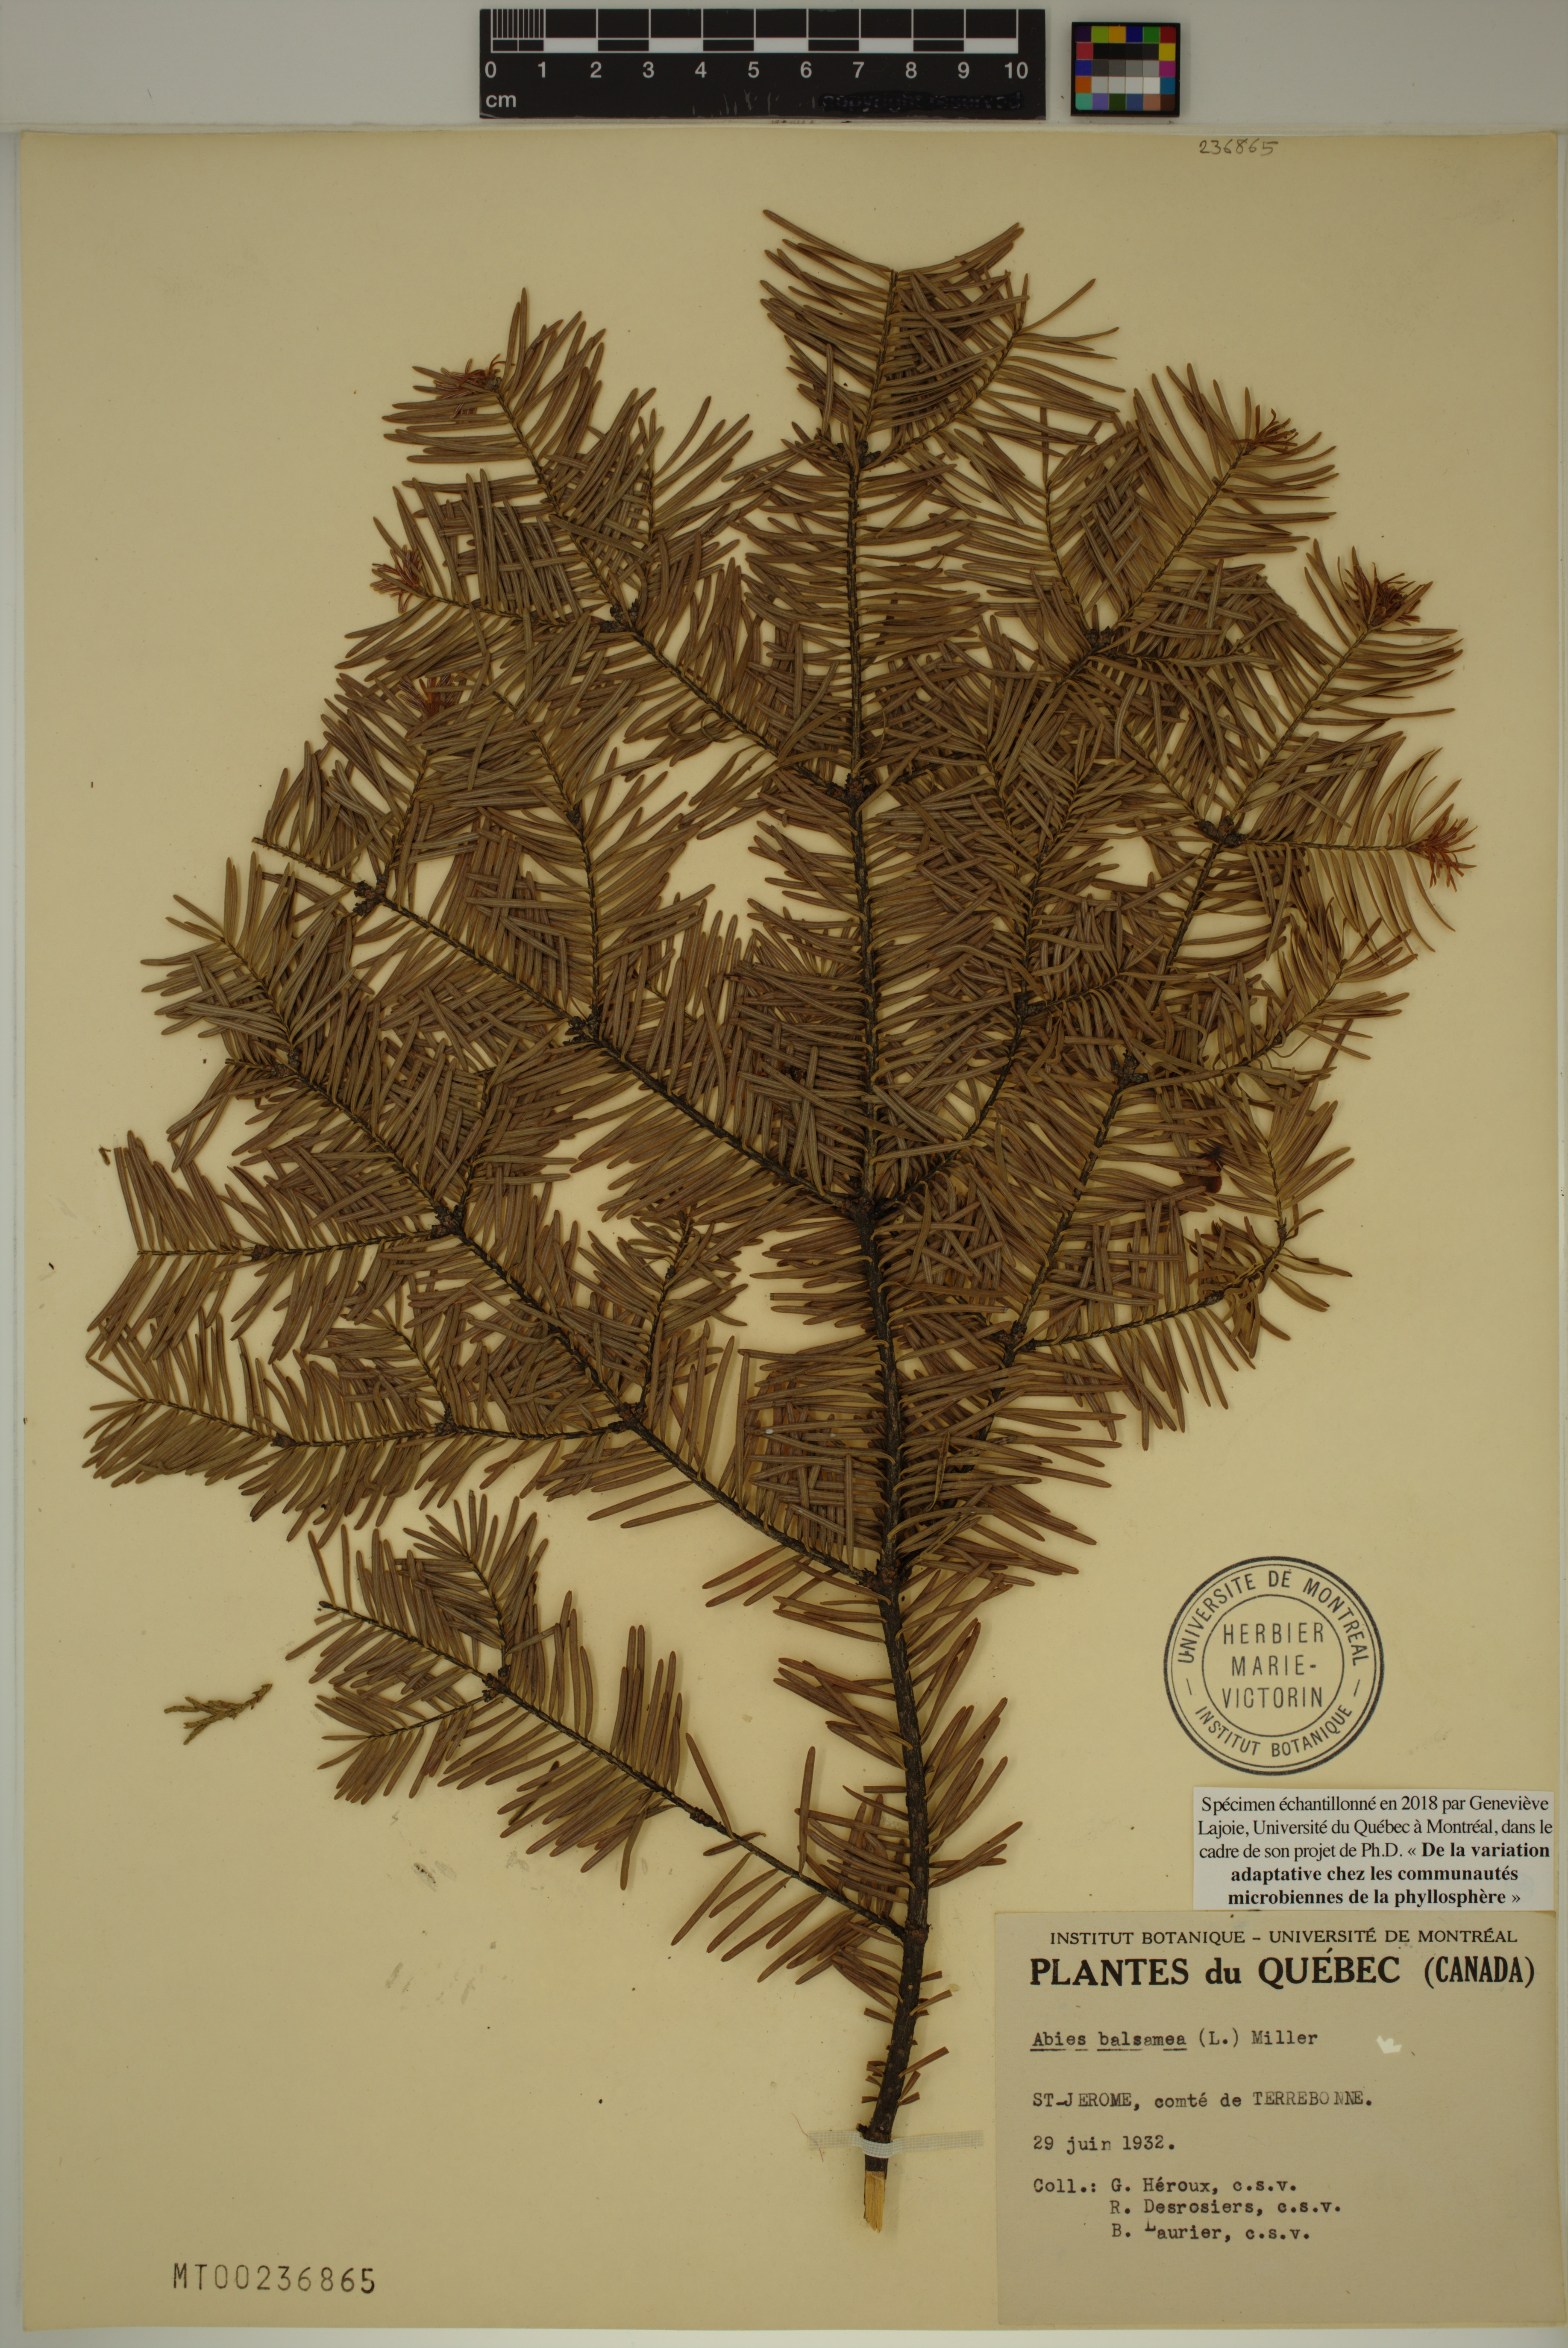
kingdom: Plantae
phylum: Tracheophyta
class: Pinopsida
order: Pinales
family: Pinaceae
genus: Abies
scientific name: Abies balsamea
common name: Balsam fir
